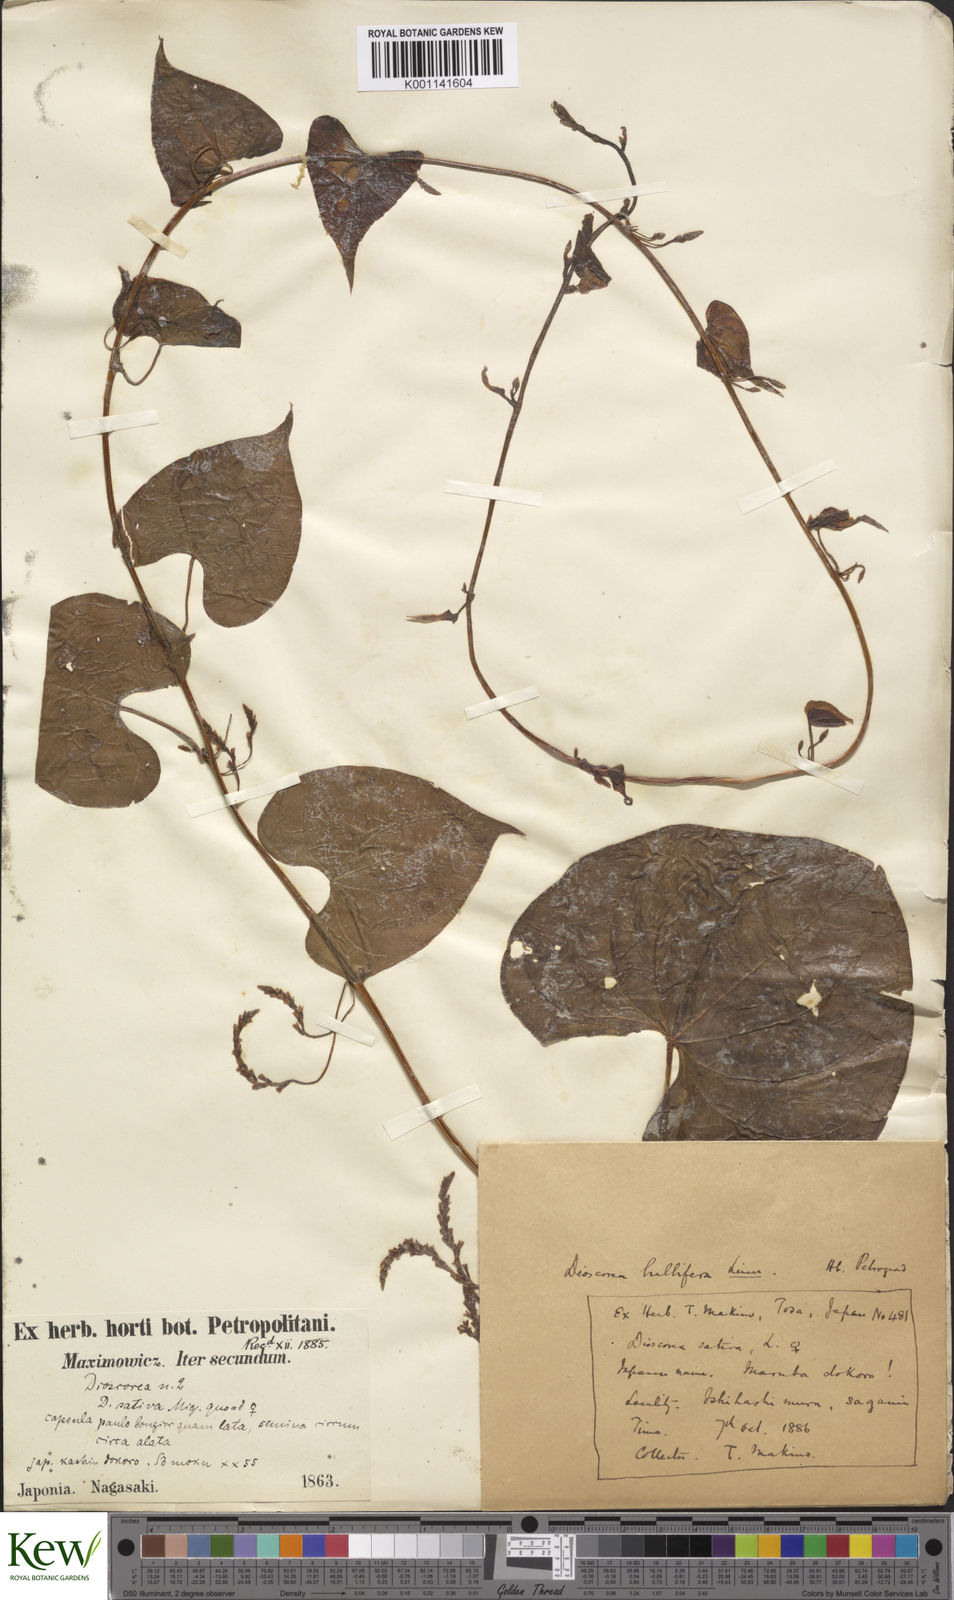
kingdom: Plantae
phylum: Tracheophyta
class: Liliopsida
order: Dioscoreales
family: Dioscoreaceae
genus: Dioscorea
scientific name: Dioscorea bulbifera
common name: Air yam
